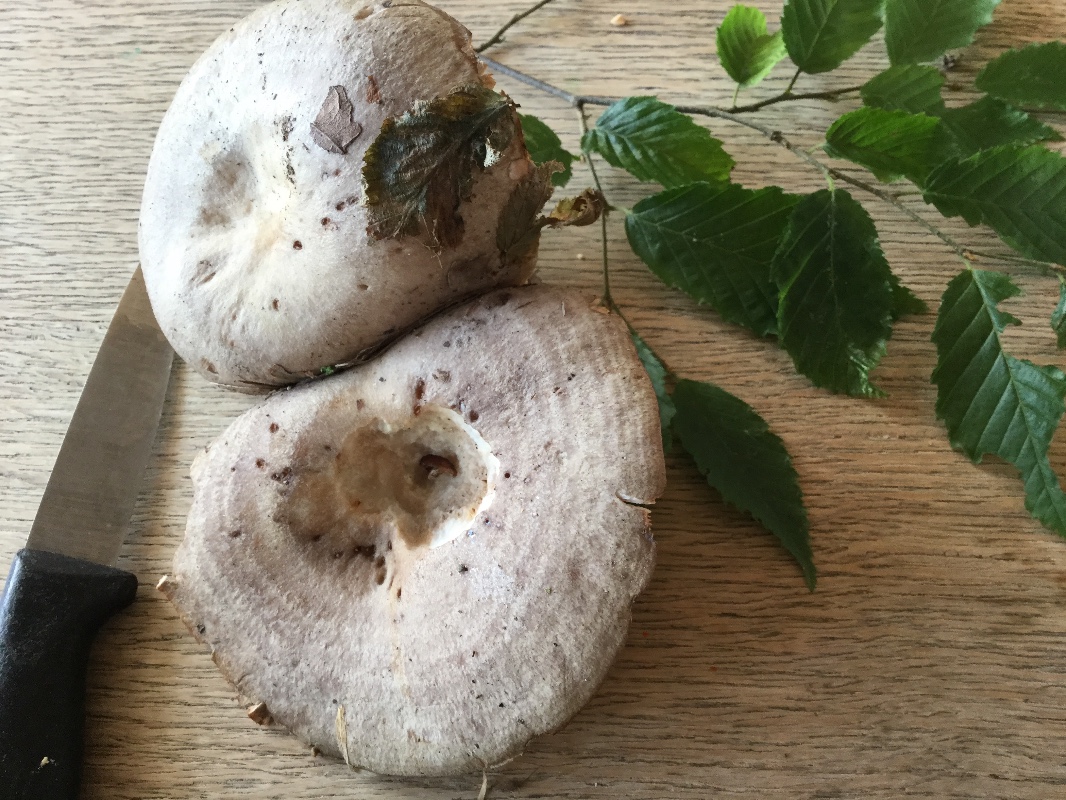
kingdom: Fungi
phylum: Basidiomycota
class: Agaricomycetes
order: Russulales
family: Russulaceae
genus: Lactarius
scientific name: Lactarius circellatus
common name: avnbøg-mælkehat
